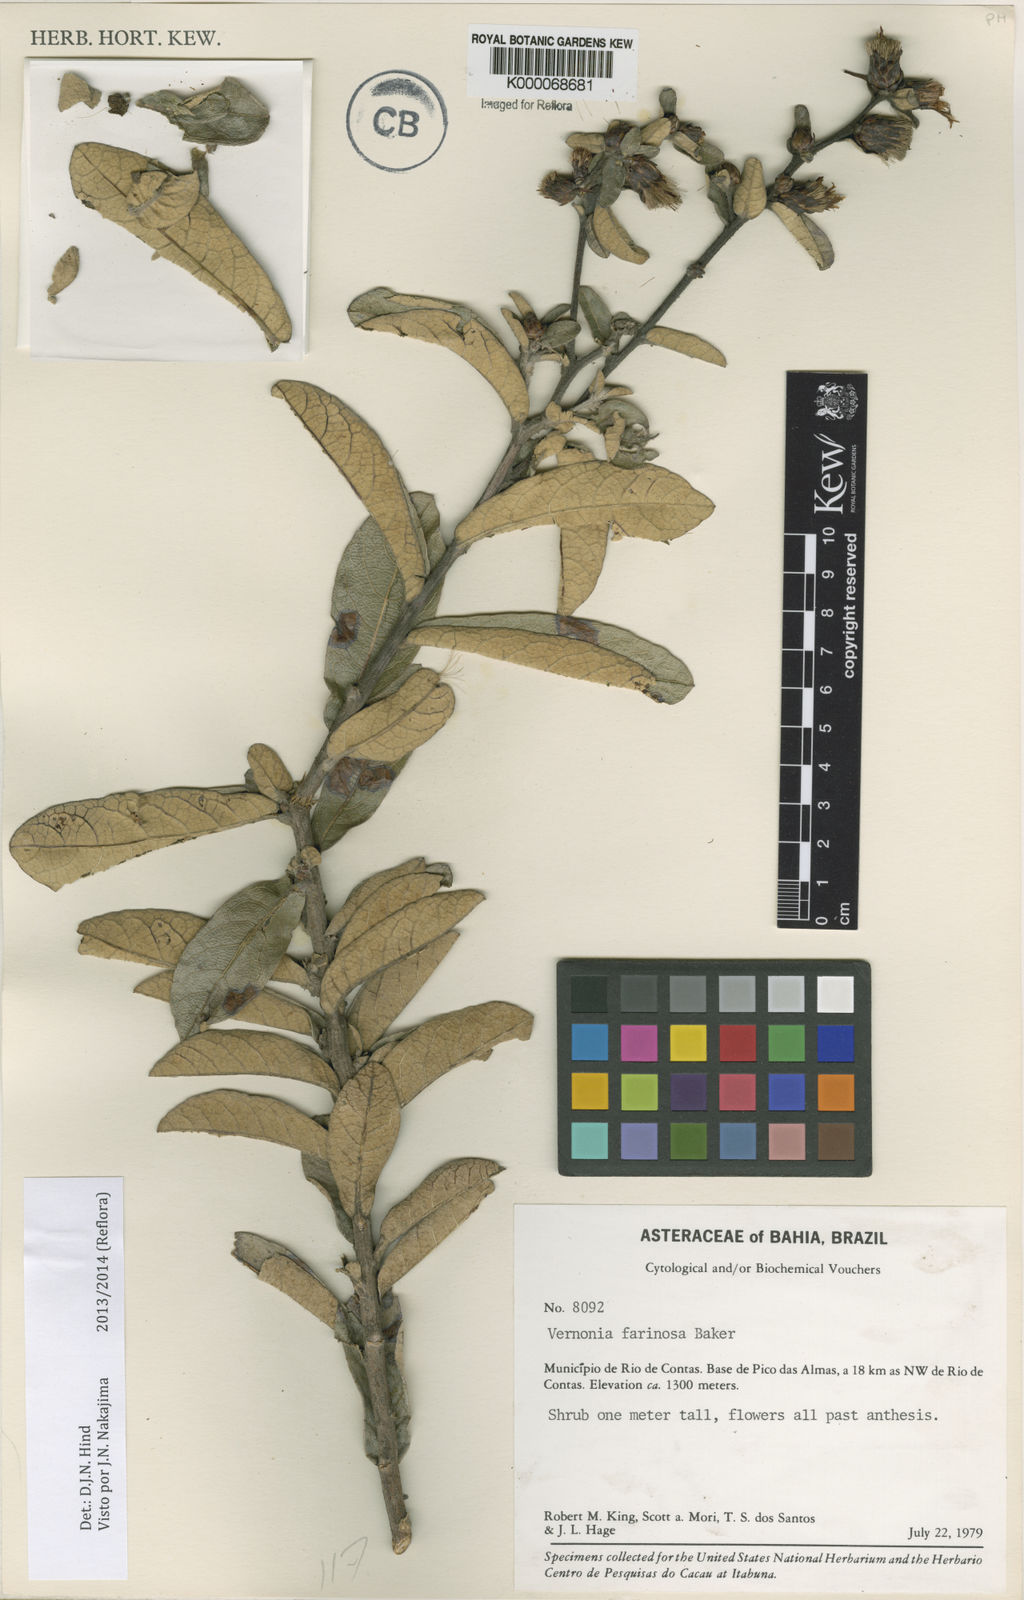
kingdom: Plantae
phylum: Tracheophyta
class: Magnoliopsida
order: Asterales
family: Asteraceae
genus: Lessingianthus
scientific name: Lessingianthus farinosus
